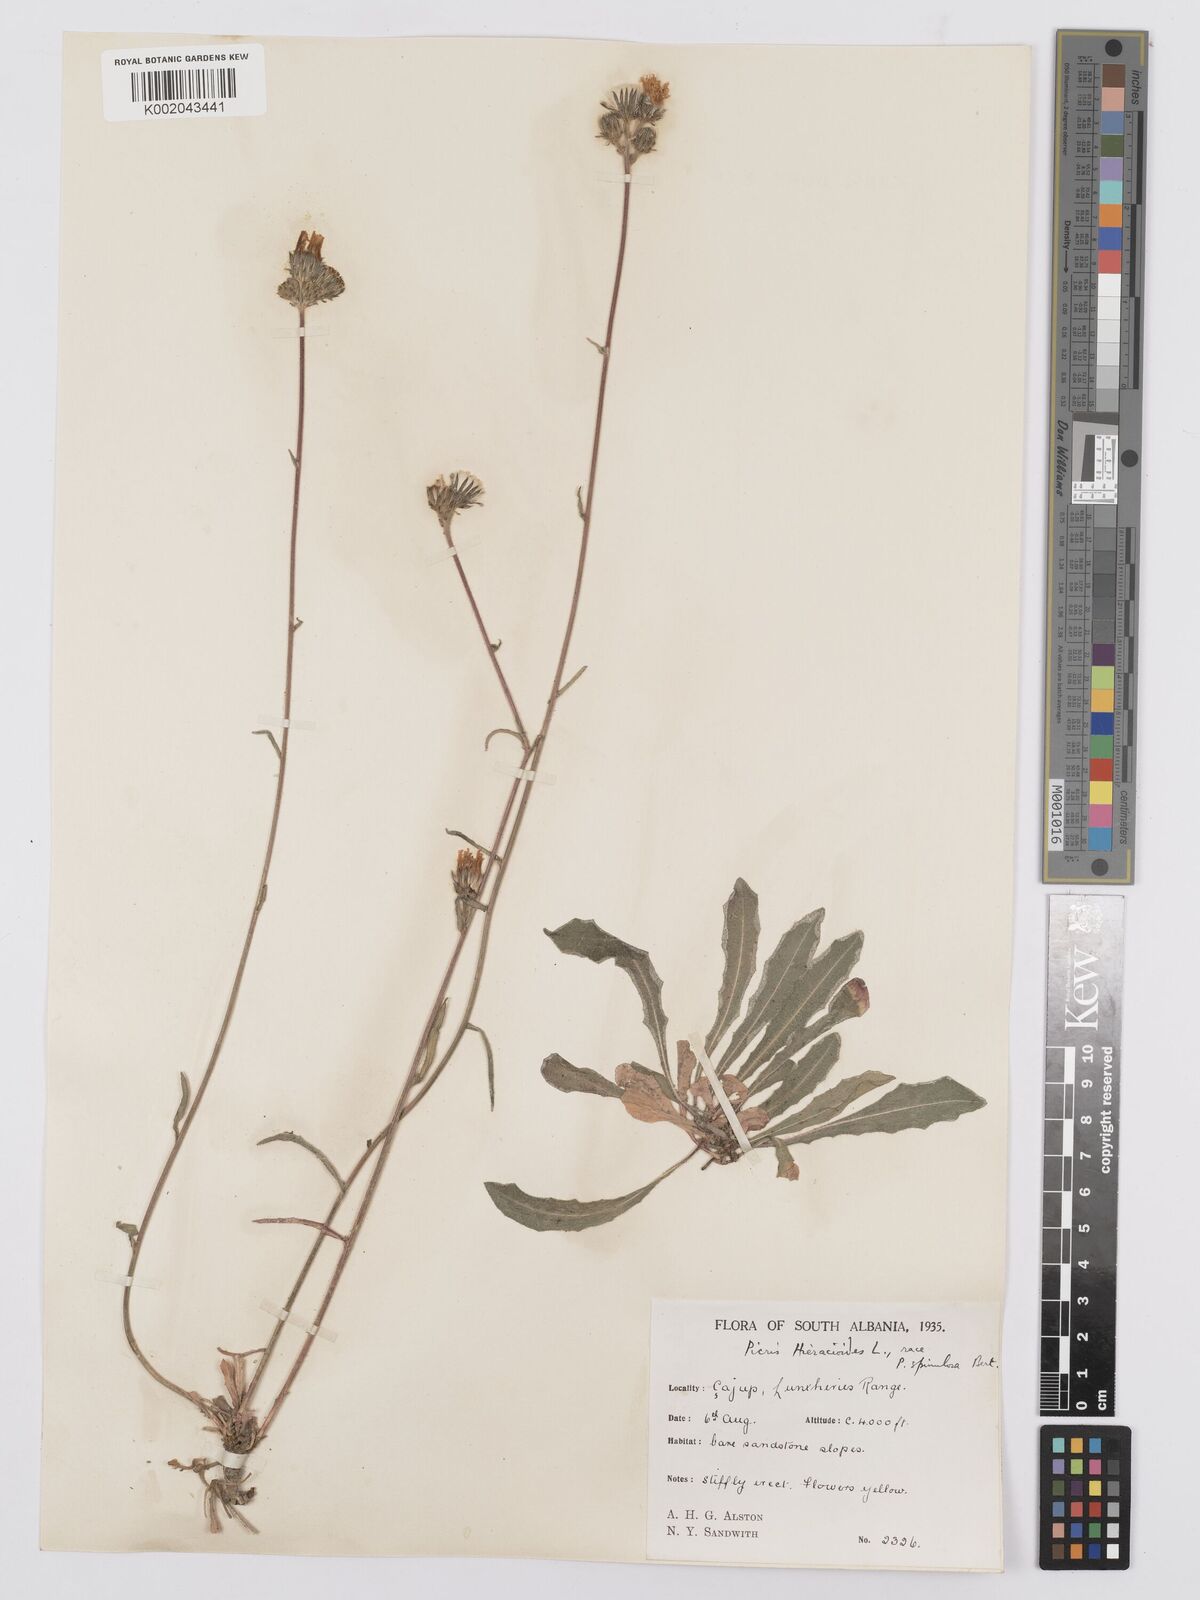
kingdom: Plantae
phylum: Tracheophyta
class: Magnoliopsida
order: Asterales
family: Asteraceae
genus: Picris
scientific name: Picris hieracioides
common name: Hawkweed oxtongue
